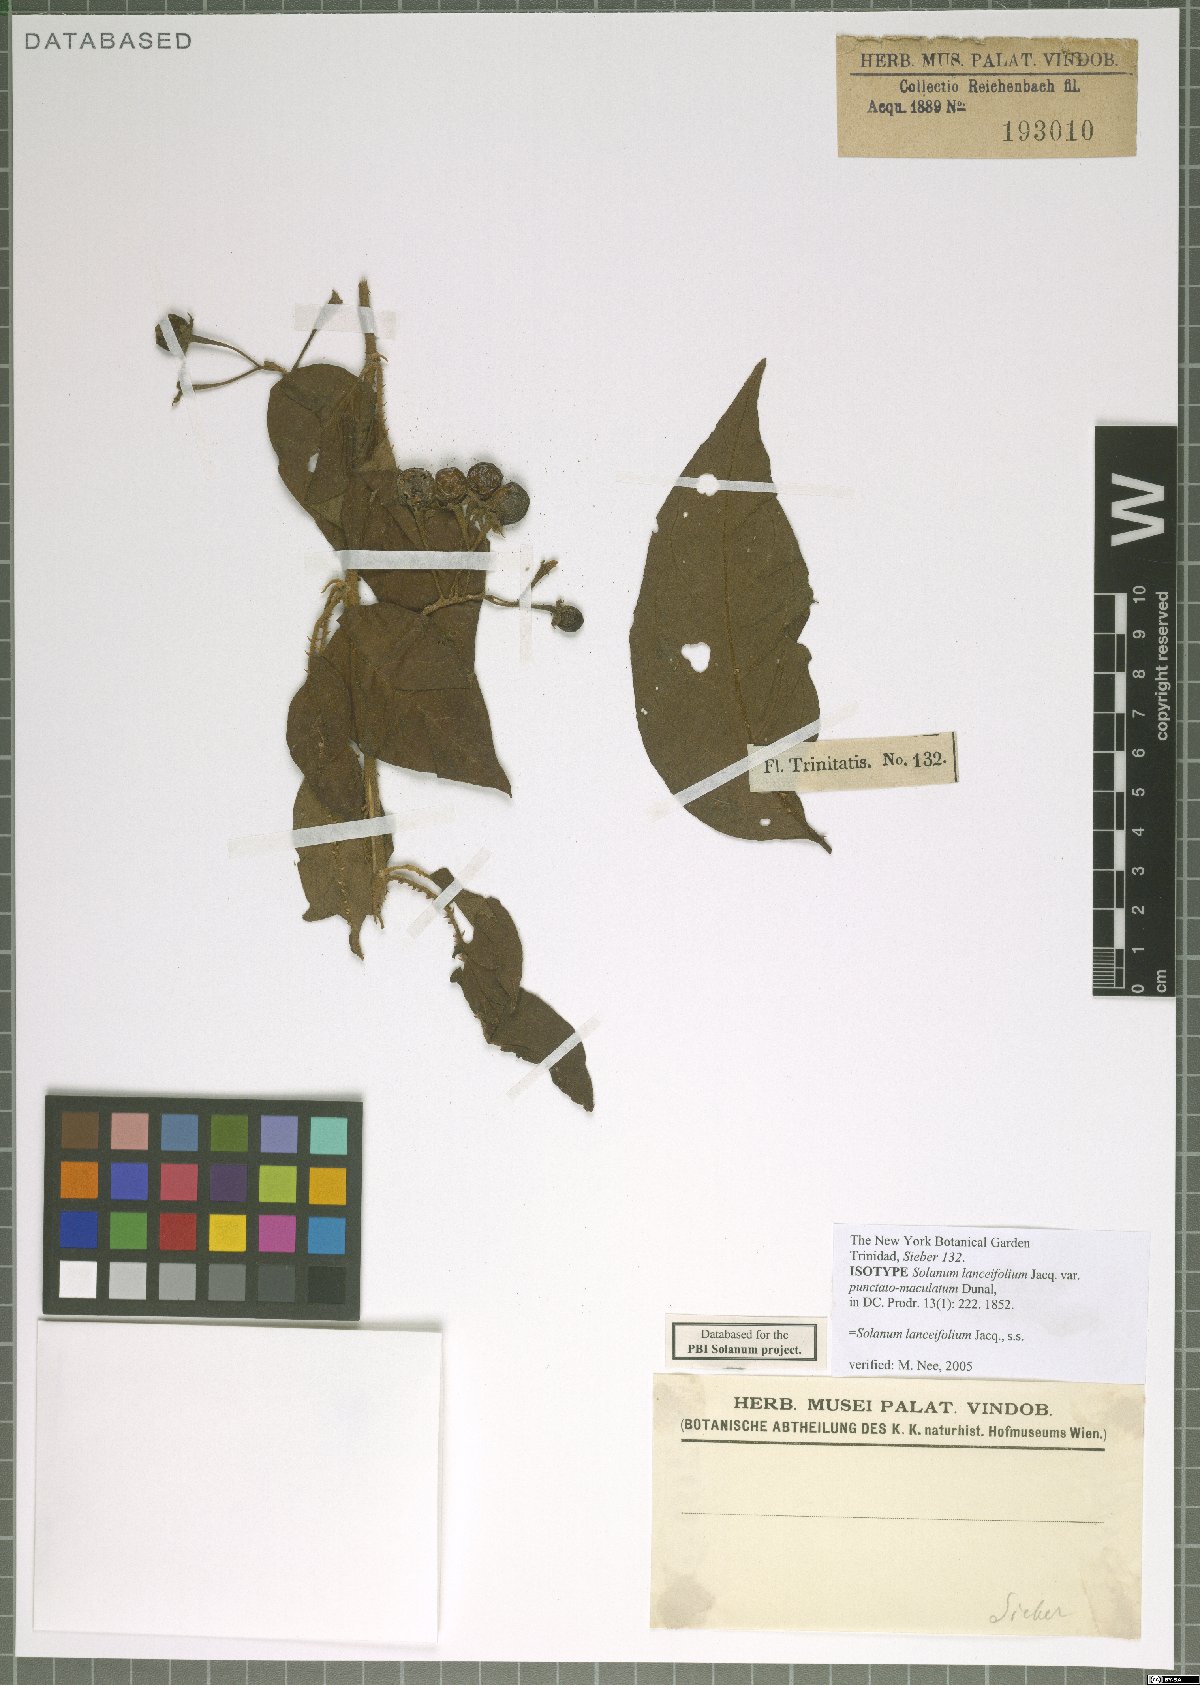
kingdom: Plantae
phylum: Tracheophyta
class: Magnoliopsida
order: Solanales
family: Solanaceae
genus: Solanum
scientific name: Solanum lanceifolium
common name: Lanceleaf nightshade
